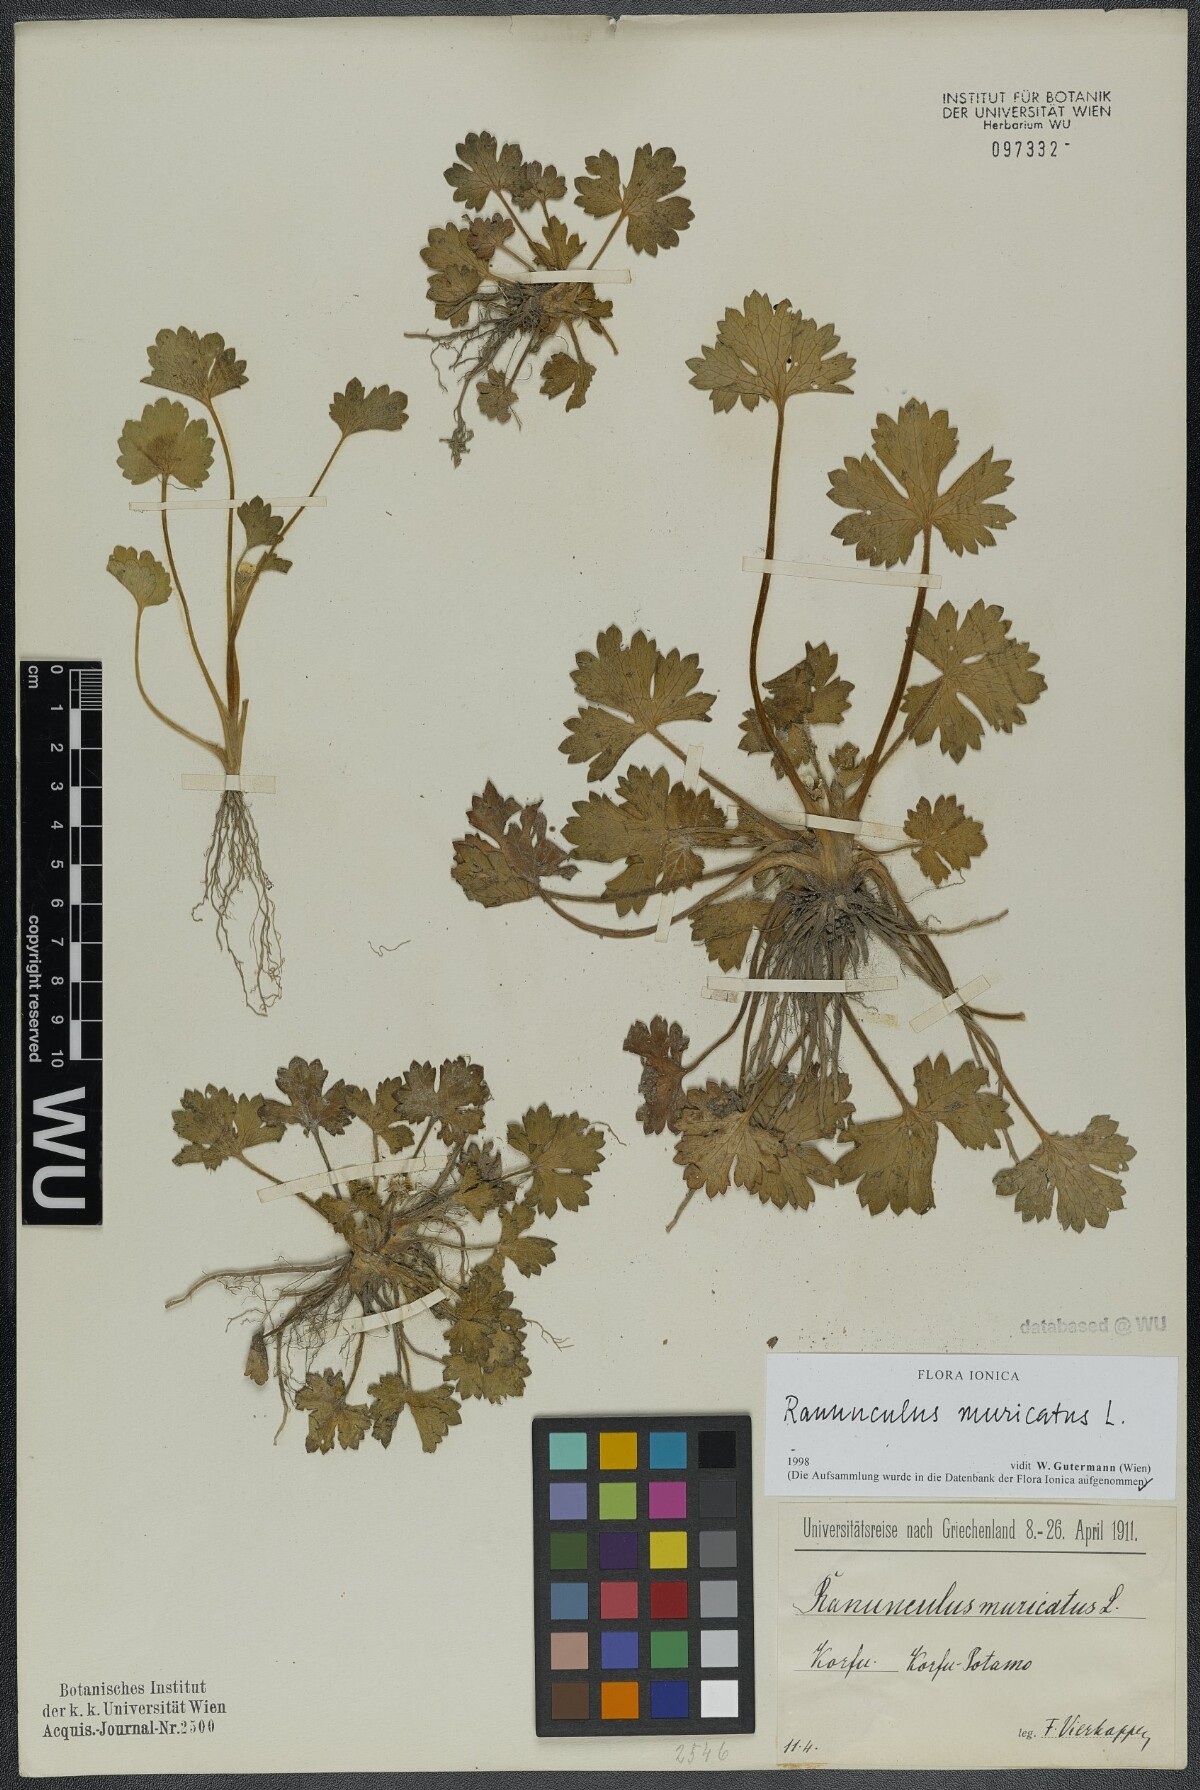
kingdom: Plantae
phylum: Tracheophyta
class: Magnoliopsida
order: Ranunculales
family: Ranunculaceae
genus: Ranunculus
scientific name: Ranunculus muricatus
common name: Rough-fruited buttercup
